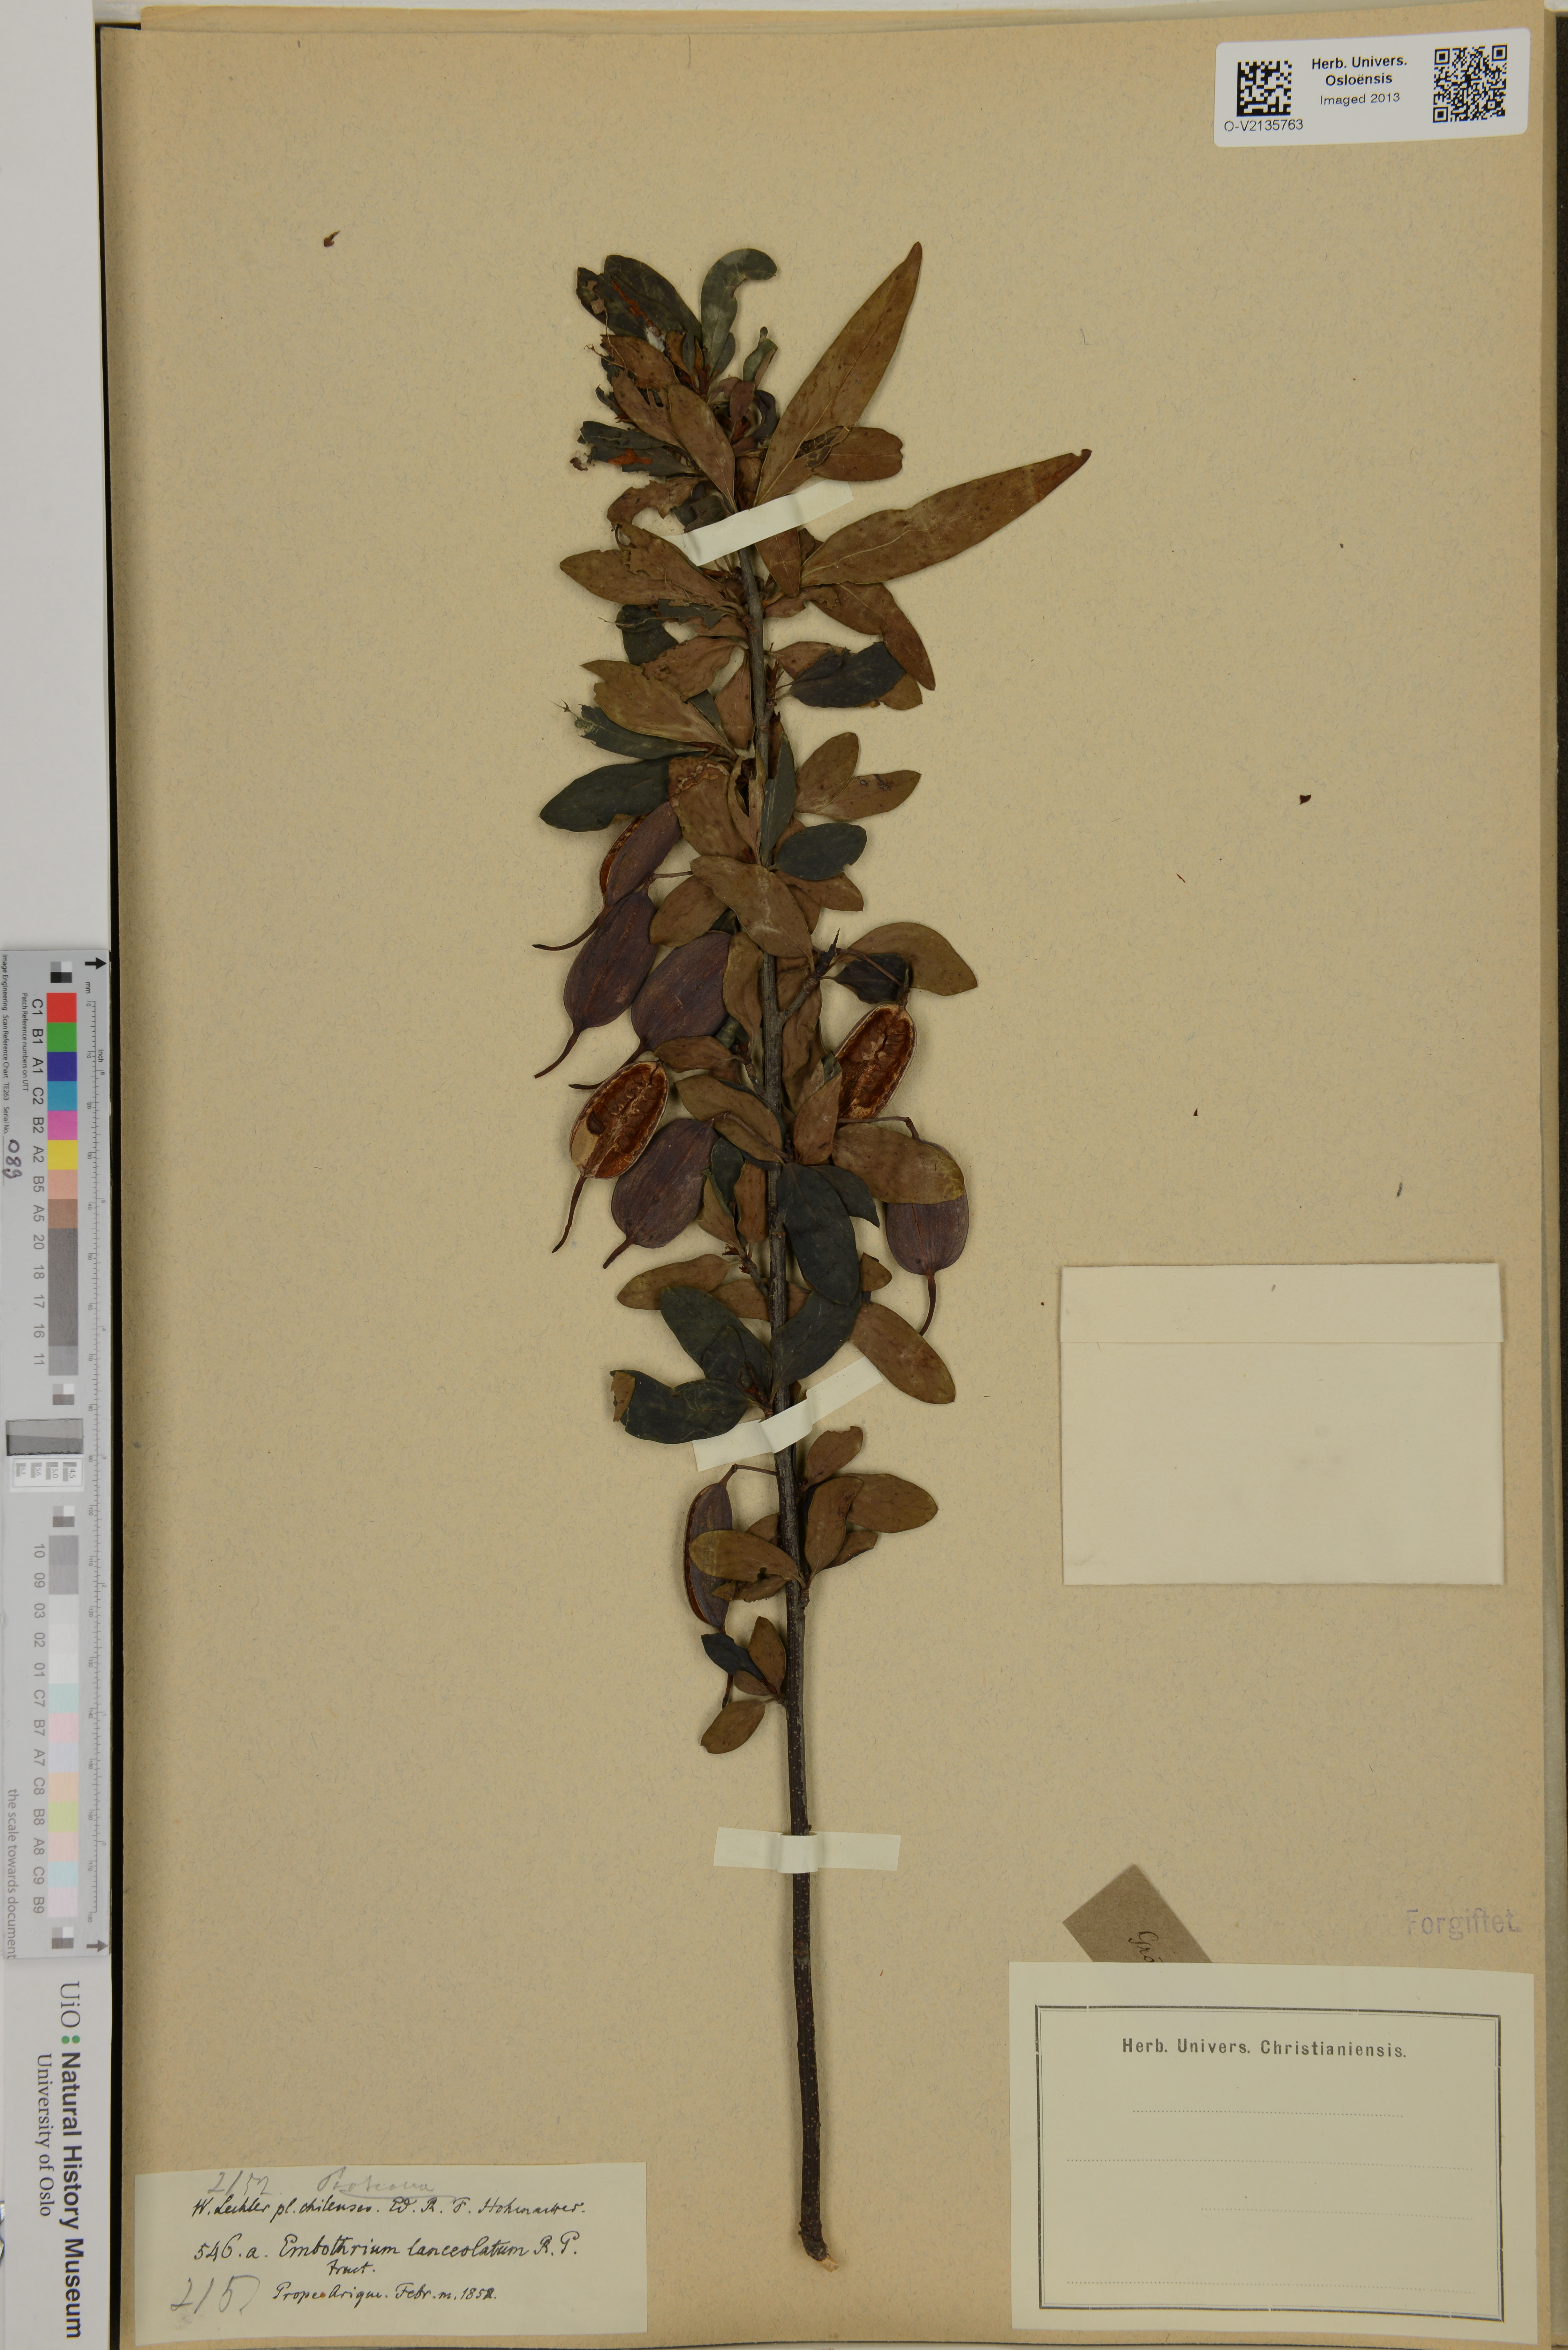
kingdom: Plantae
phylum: Tracheophyta
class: Magnoliopsida
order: Proteales
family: Proteaceae
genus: Embothrium
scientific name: Embothrium coccineum
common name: Chilean firebush
